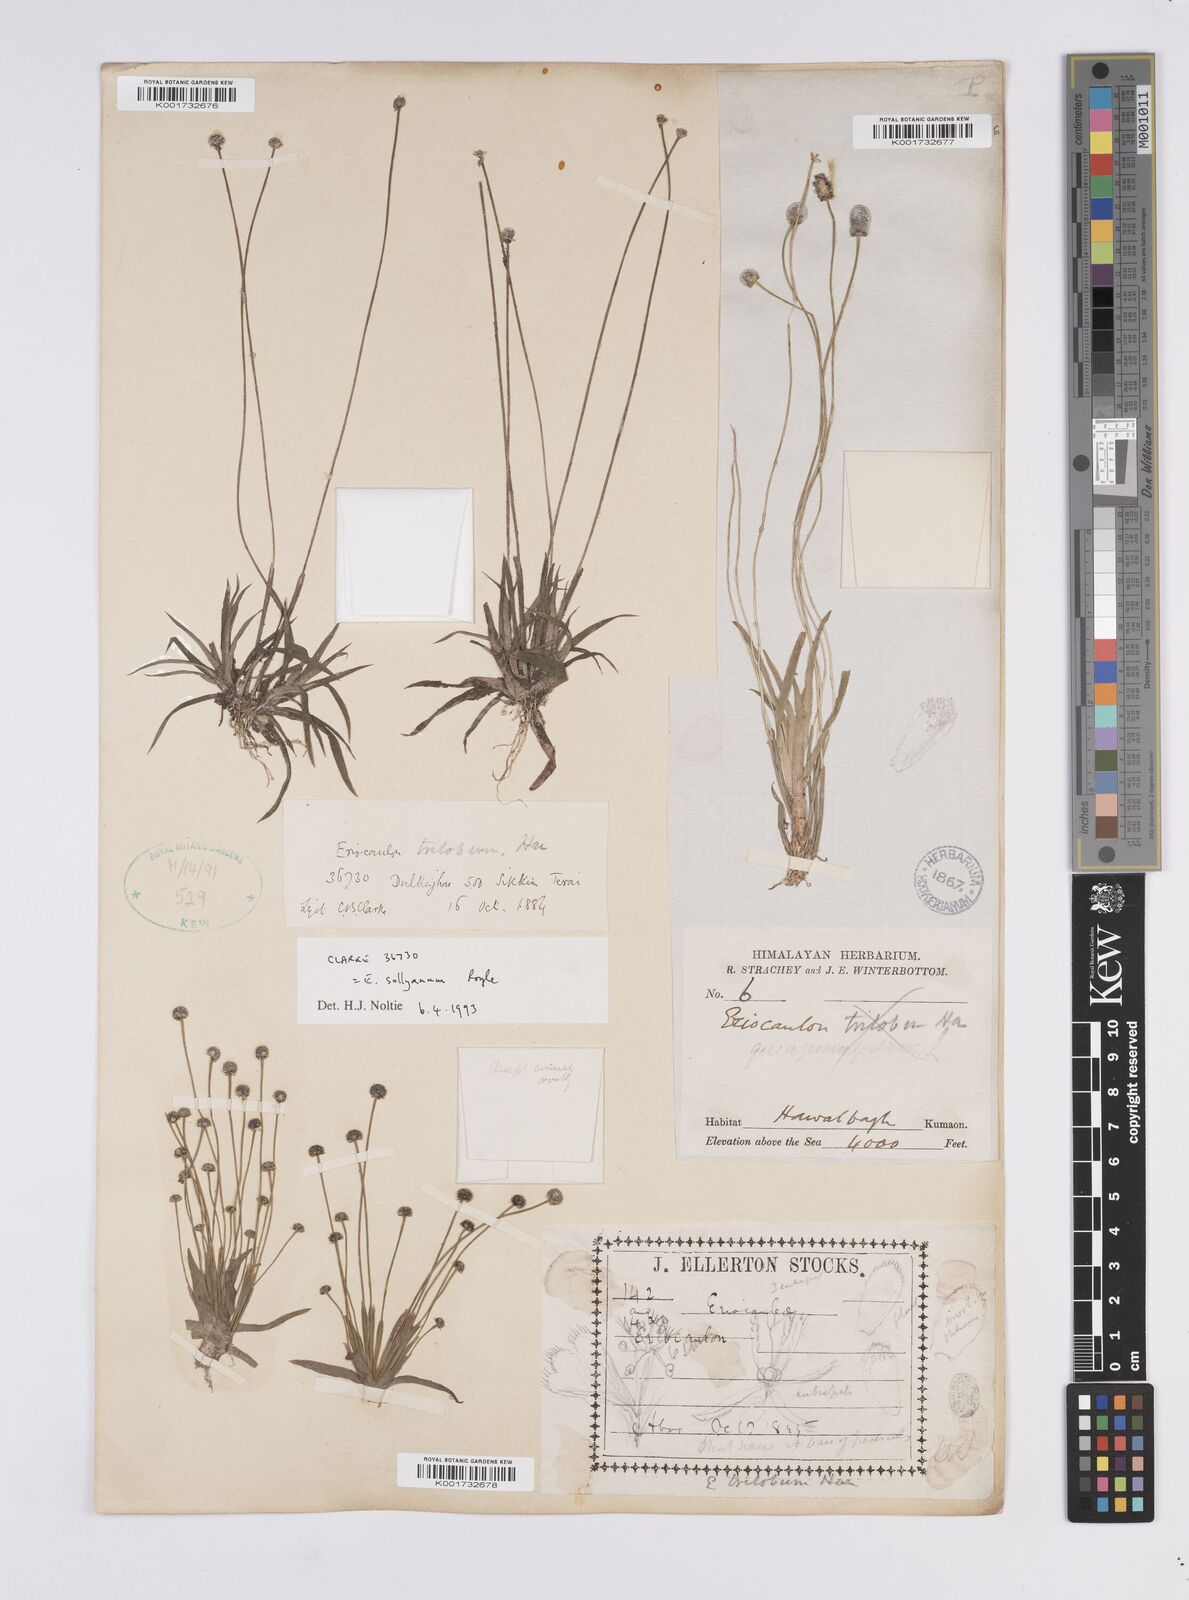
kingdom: Plantae
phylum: Tracheophyta
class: Liliopsida
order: Poales
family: Eriocaulaceae
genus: Eriocaulon
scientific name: Eriocaulon sollyanum
